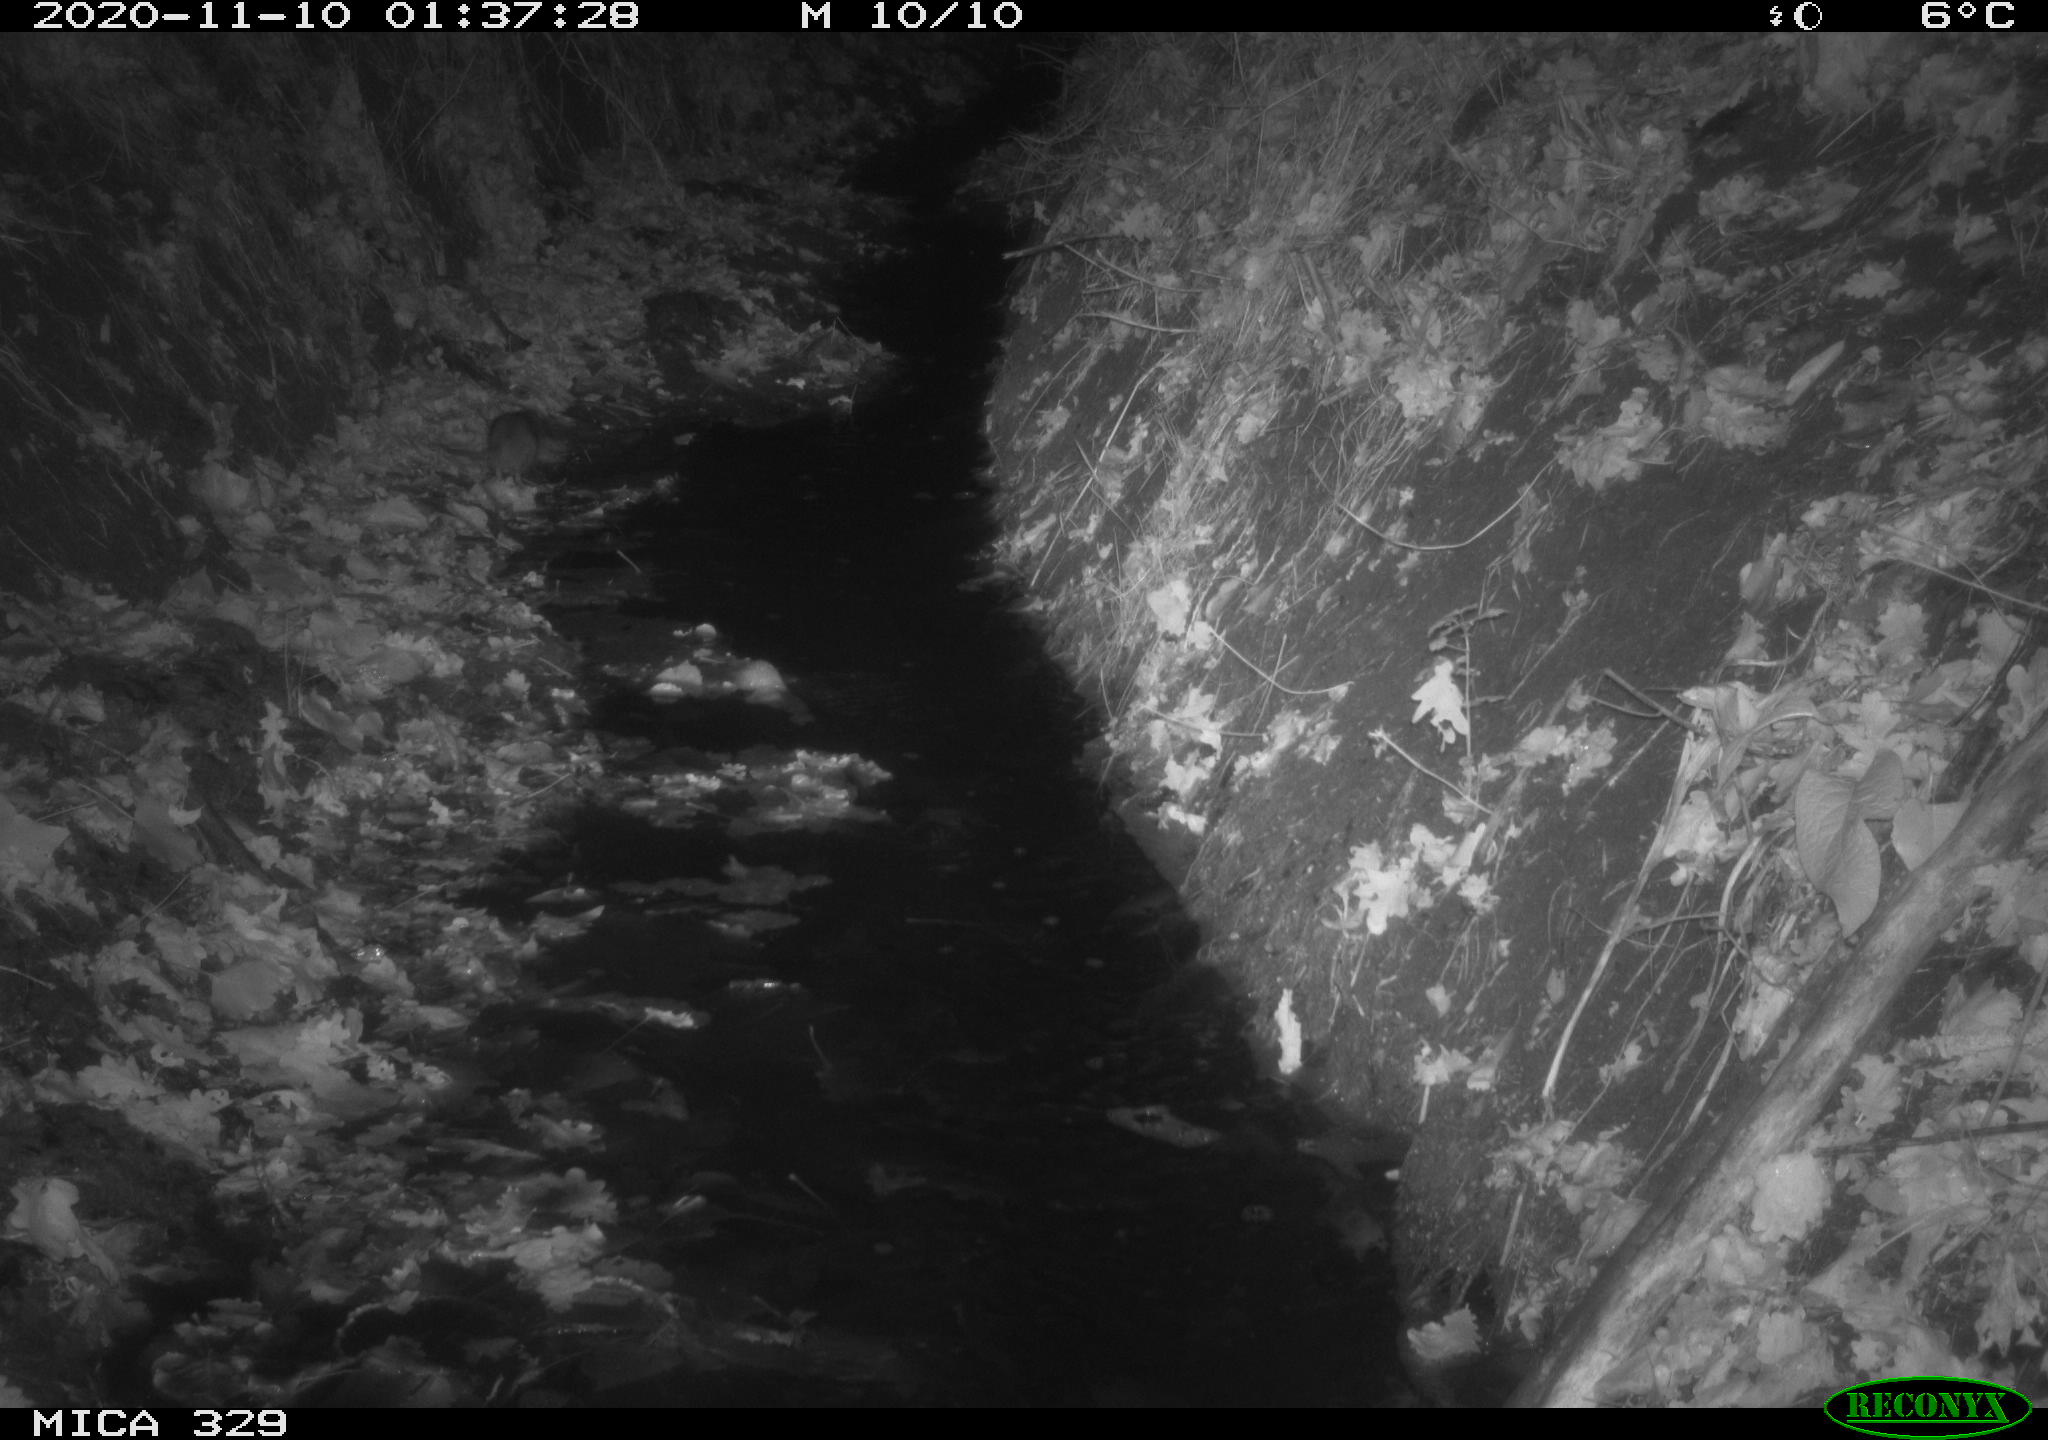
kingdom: Animalia
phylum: Chordata
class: Mammalia
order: Rodentia
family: Muridae
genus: Rattus
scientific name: Rattus norvegicus
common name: Brown rat
